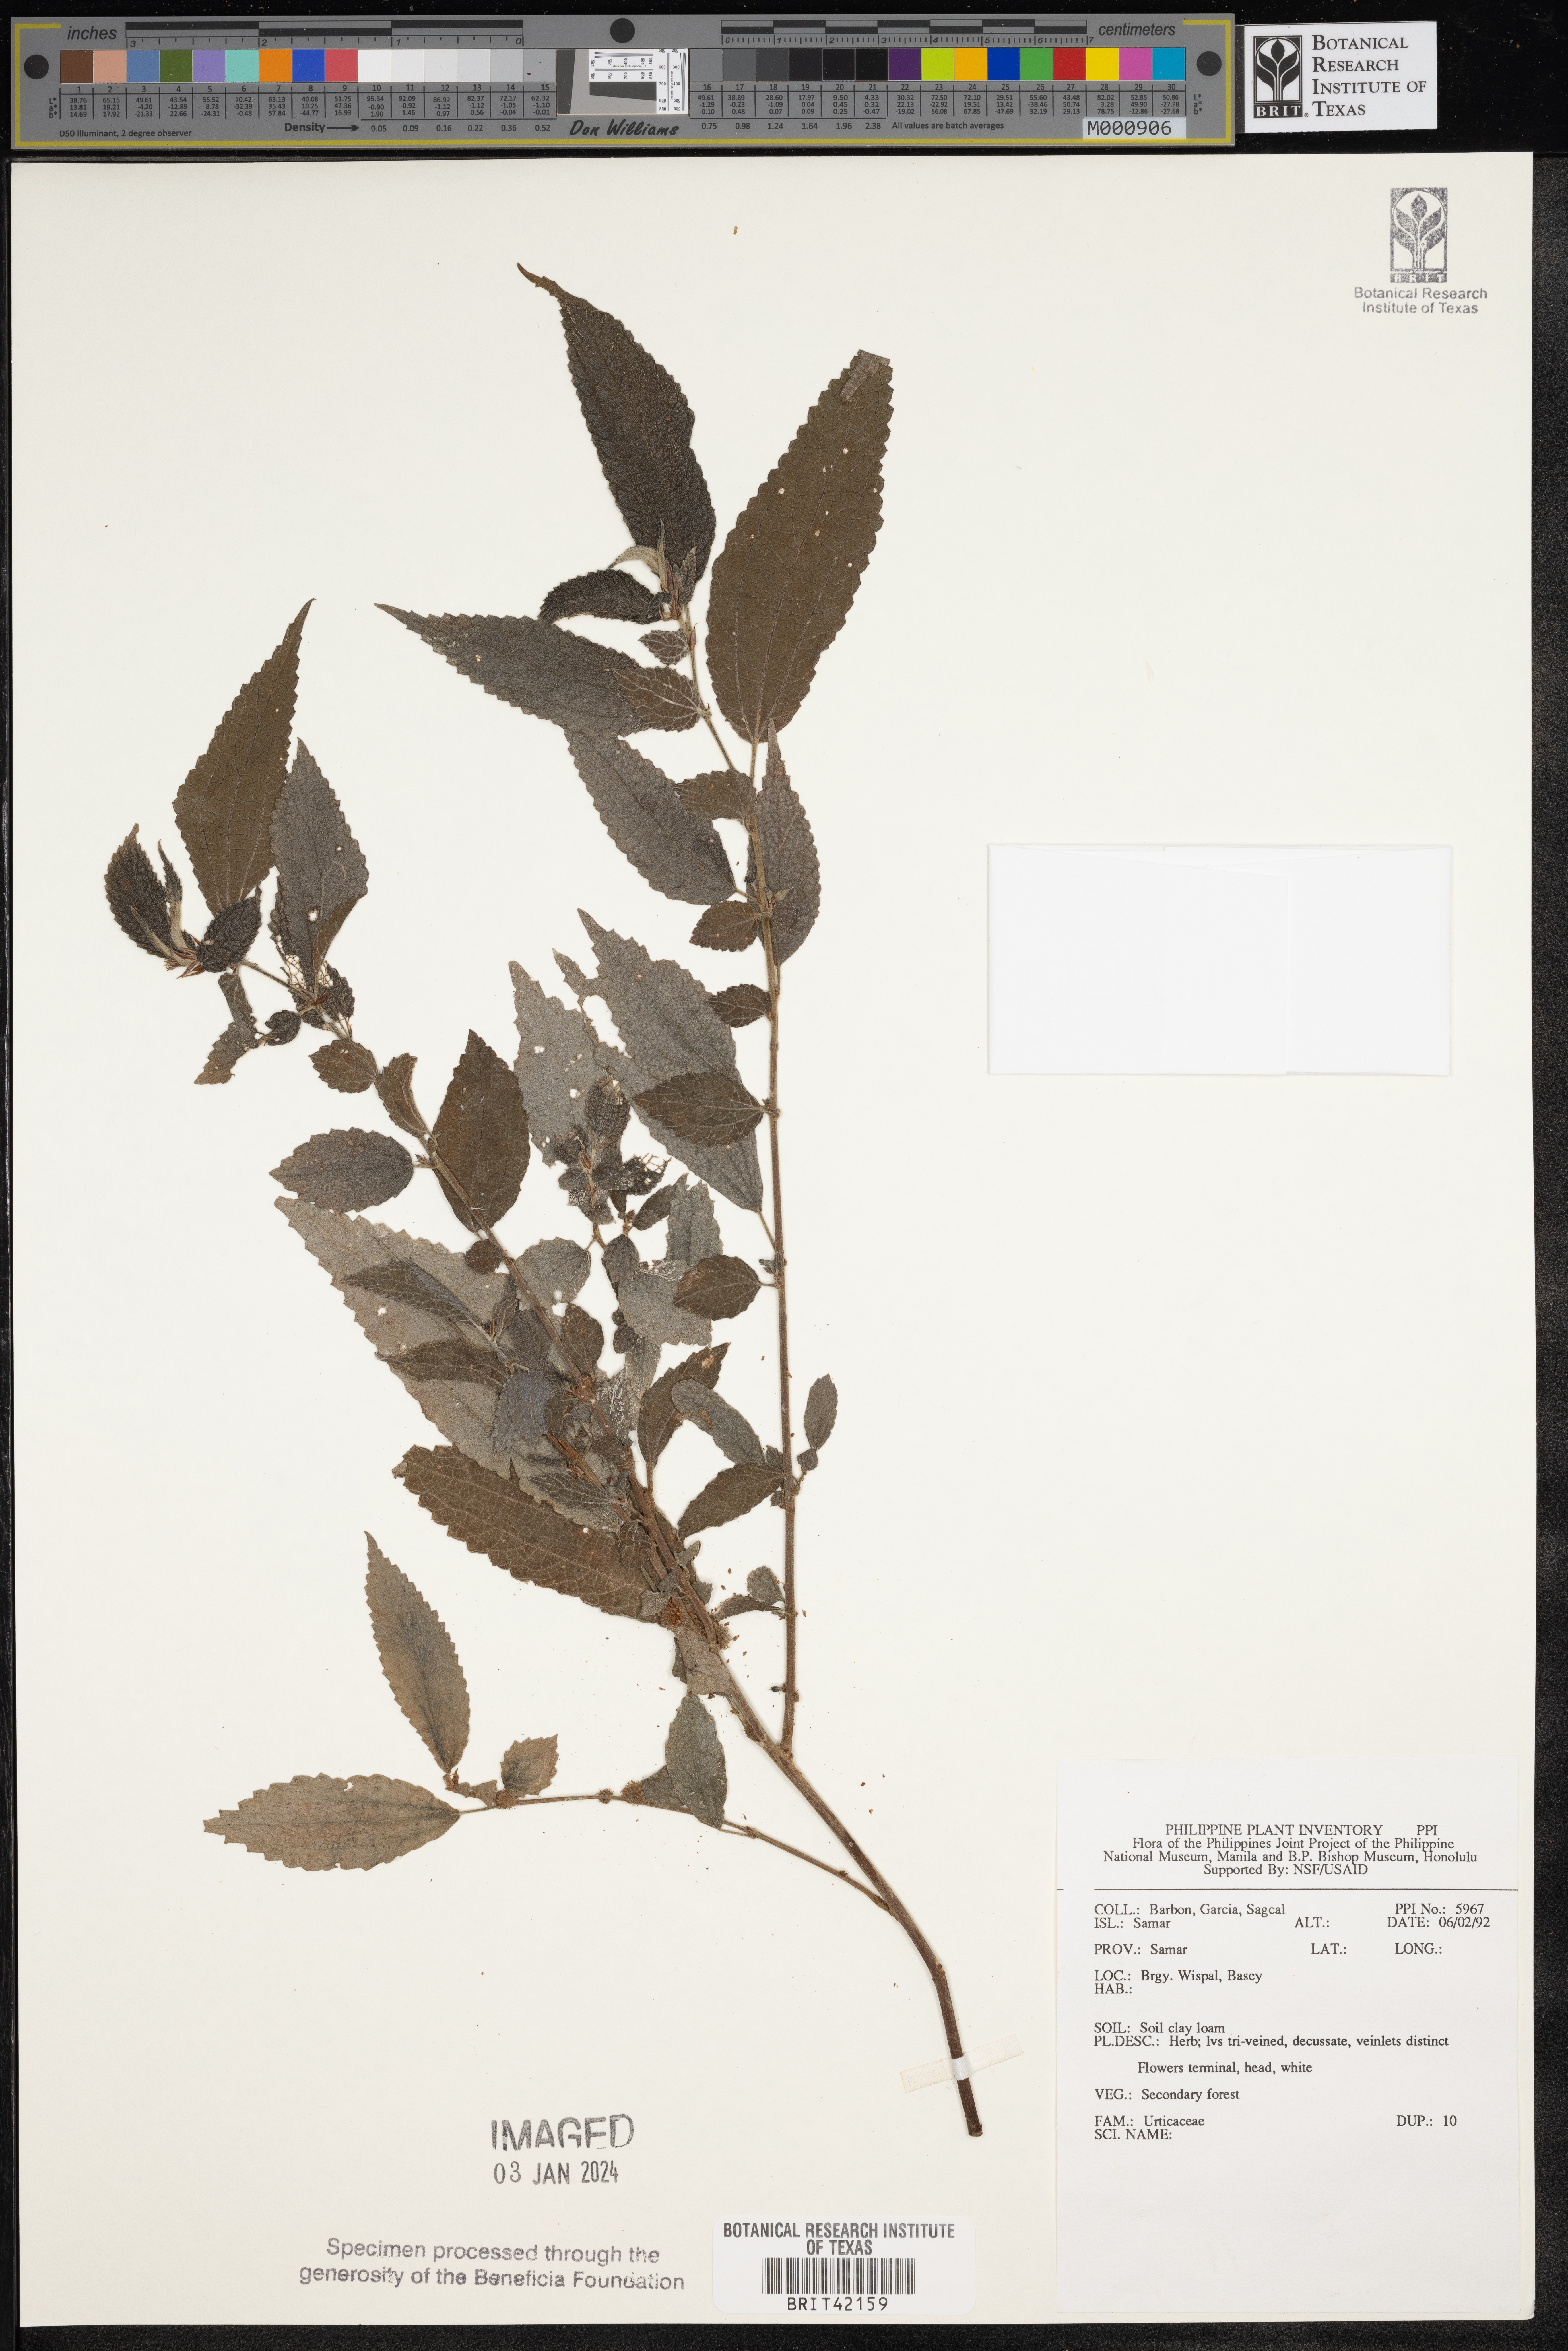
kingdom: Plantae
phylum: Tracheophyta
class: Magnoliopsida
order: Rosales
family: Urticaceae
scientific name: Urticaceae
